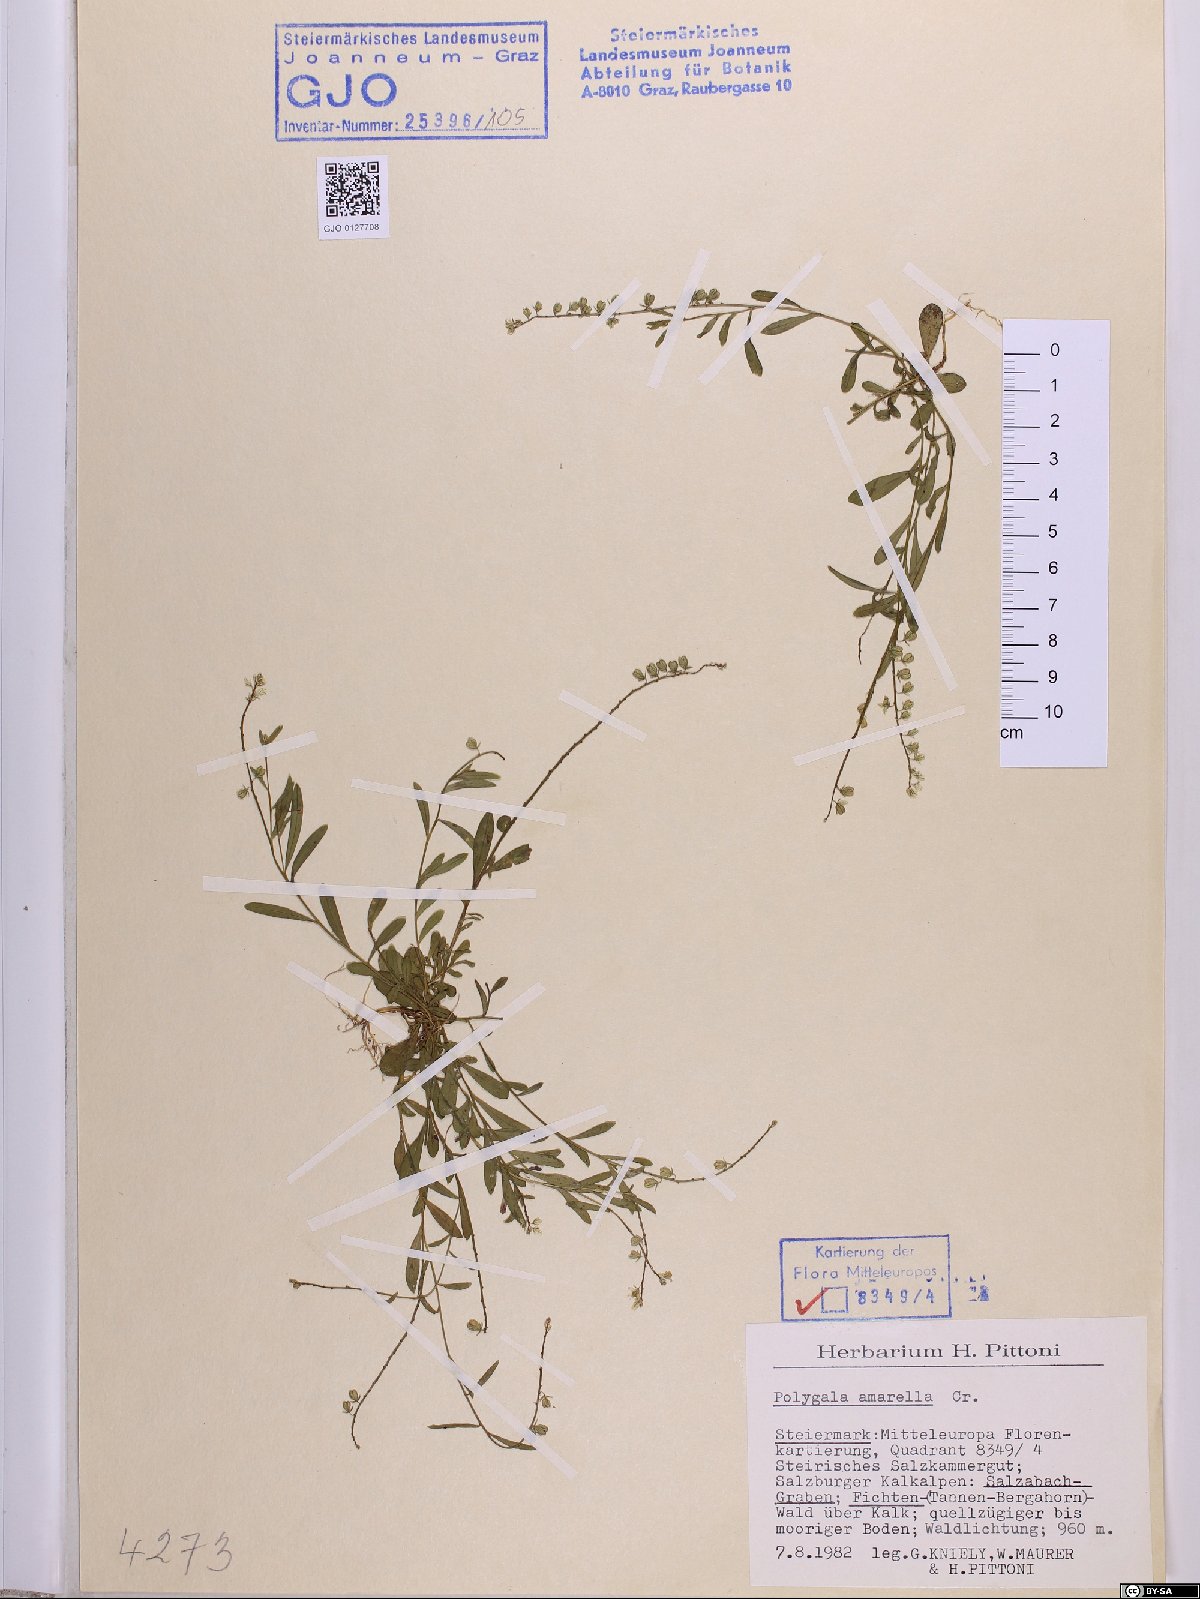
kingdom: Plantae
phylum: Tracheophyta
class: Magnoliopsida
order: Fabales
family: Polygalaceae
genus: Polygala
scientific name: Polygala amarella
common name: Dwarf milkwort
